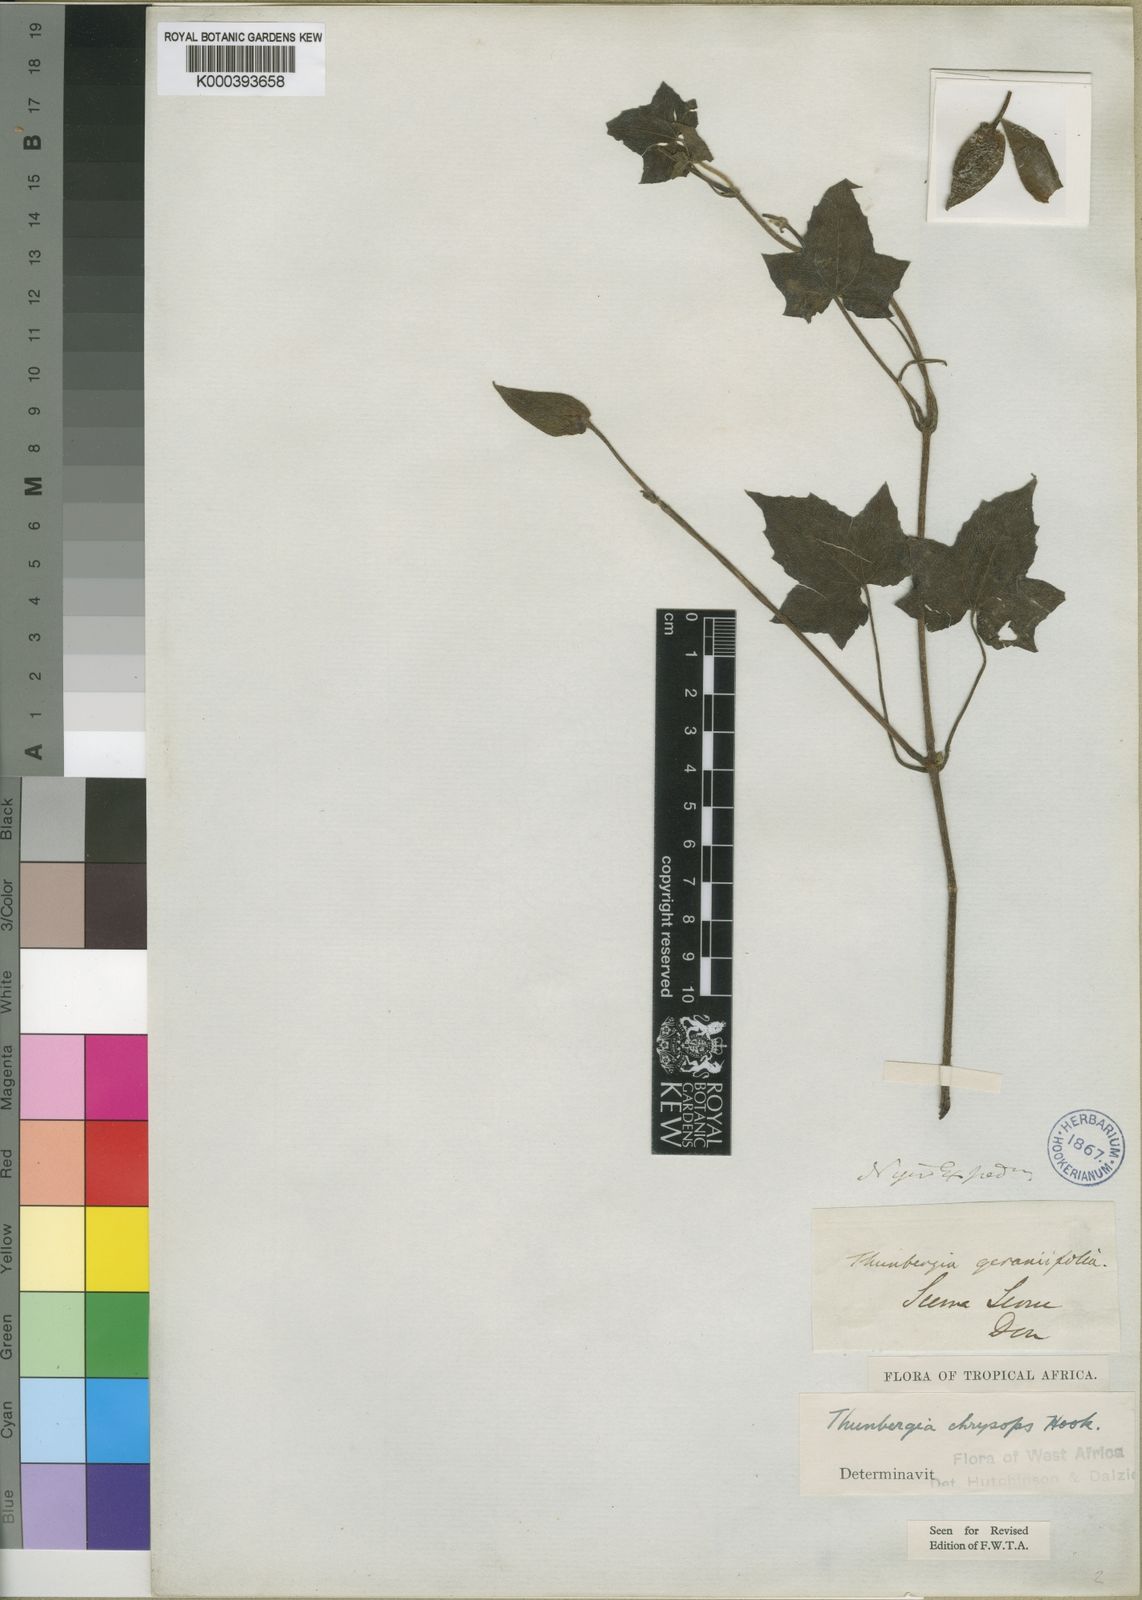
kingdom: Plantae
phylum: Tracheophyta
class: Magnoliopsida
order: Lamiales
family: Acanthaceae
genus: Thunbergia
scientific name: Thunbergia chrysops
